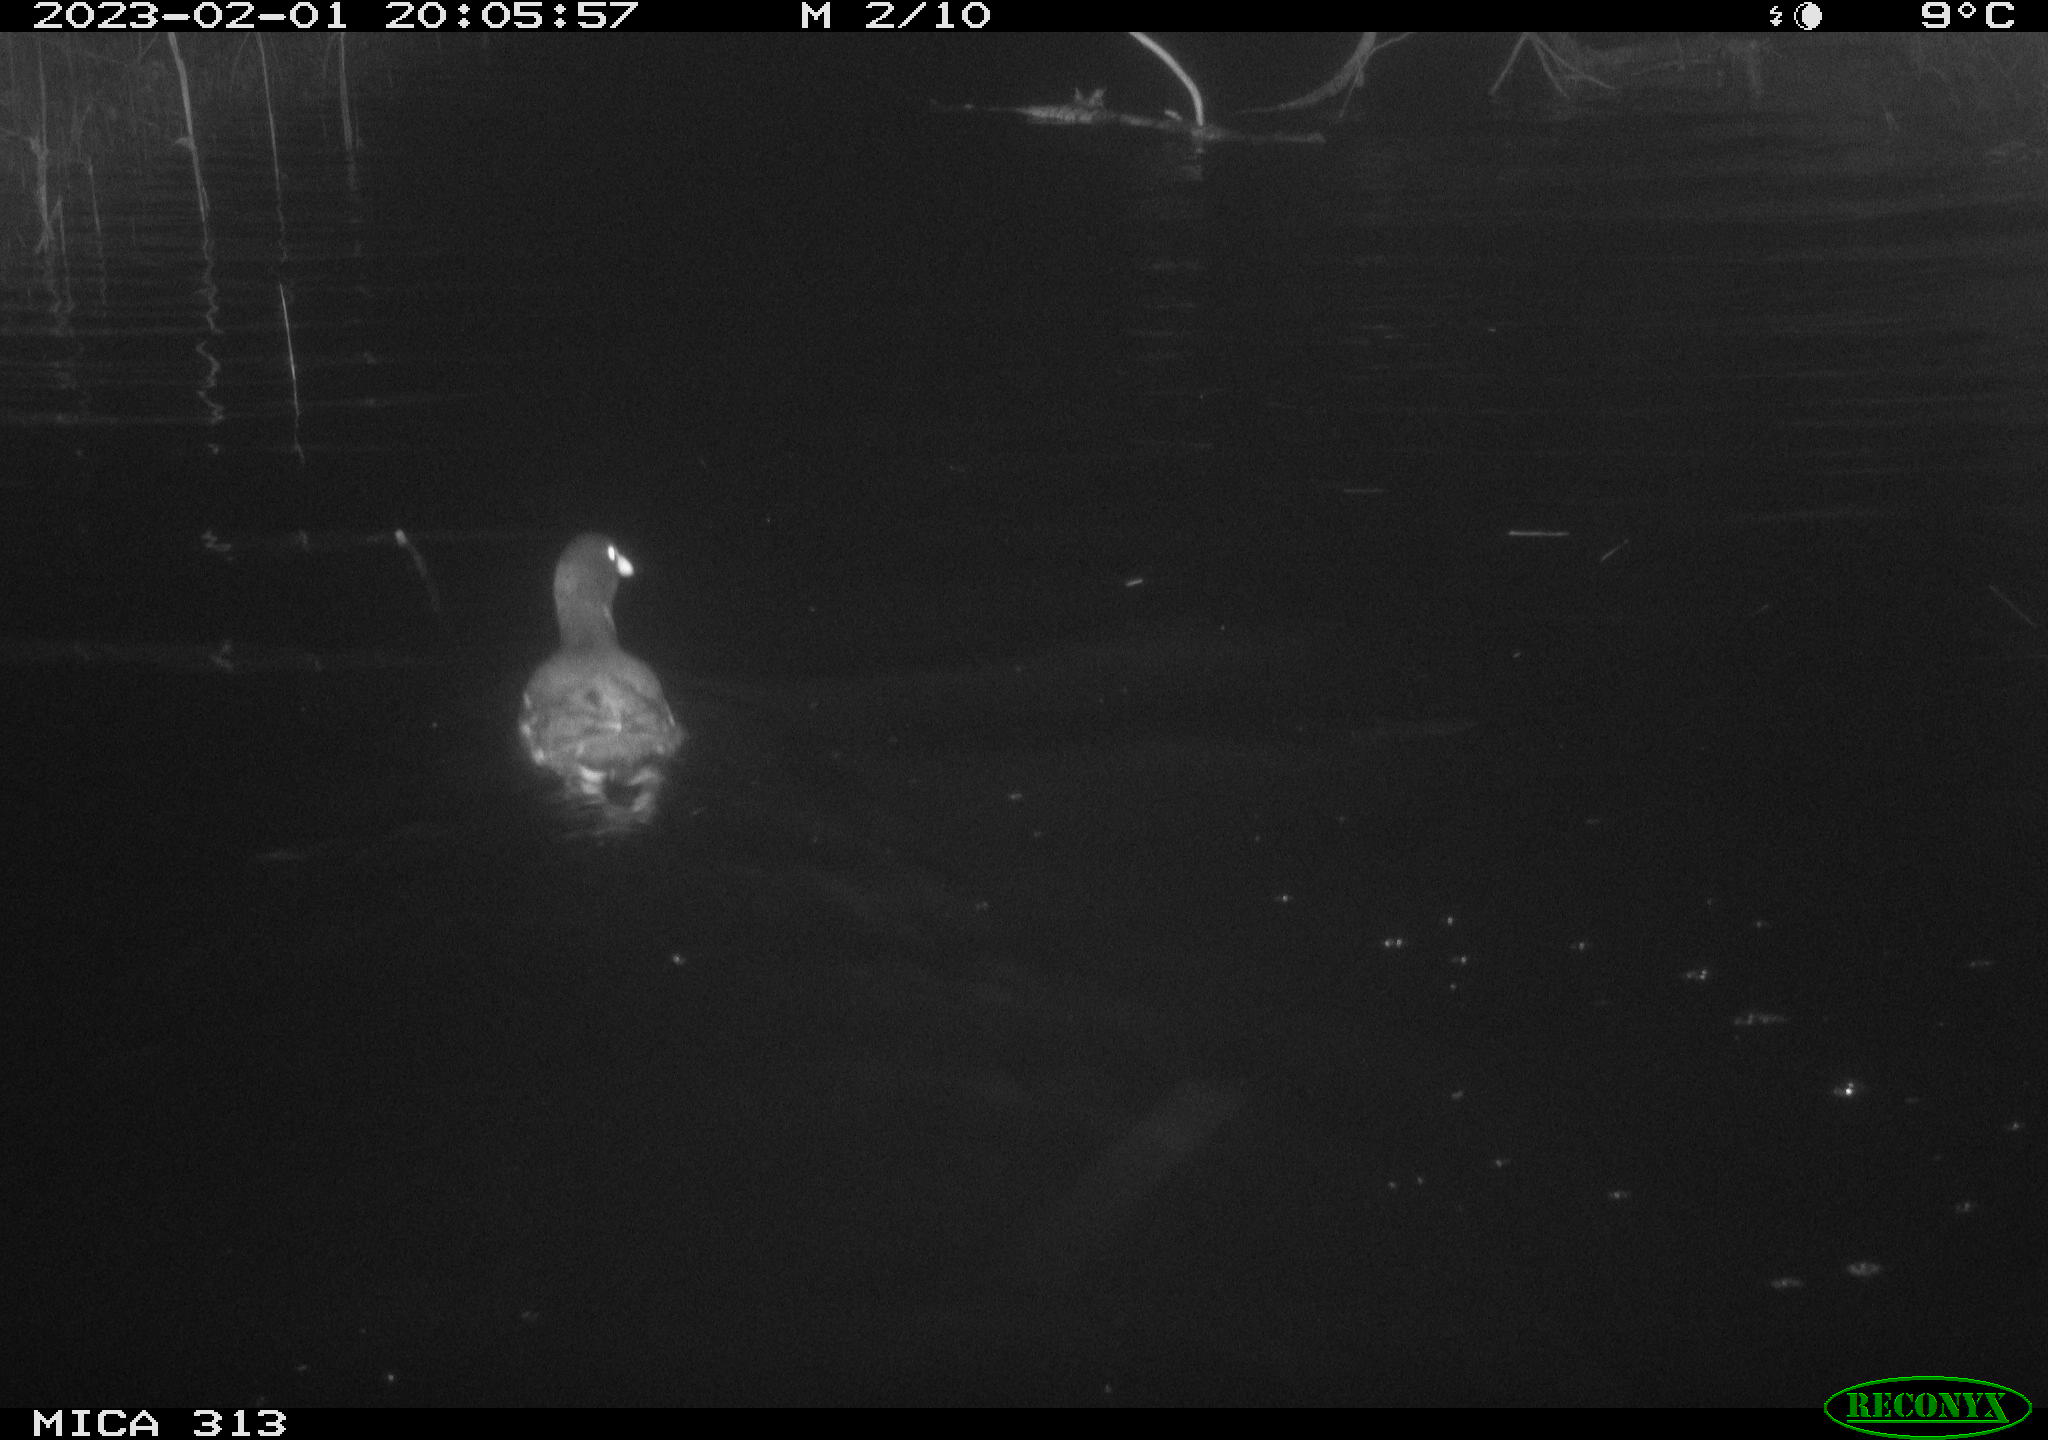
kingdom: Animalia
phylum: Chordata
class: Aves
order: Gruiformes
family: Rallidae
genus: Gallinula
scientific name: Gallinula chloropus
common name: Common moorhen
